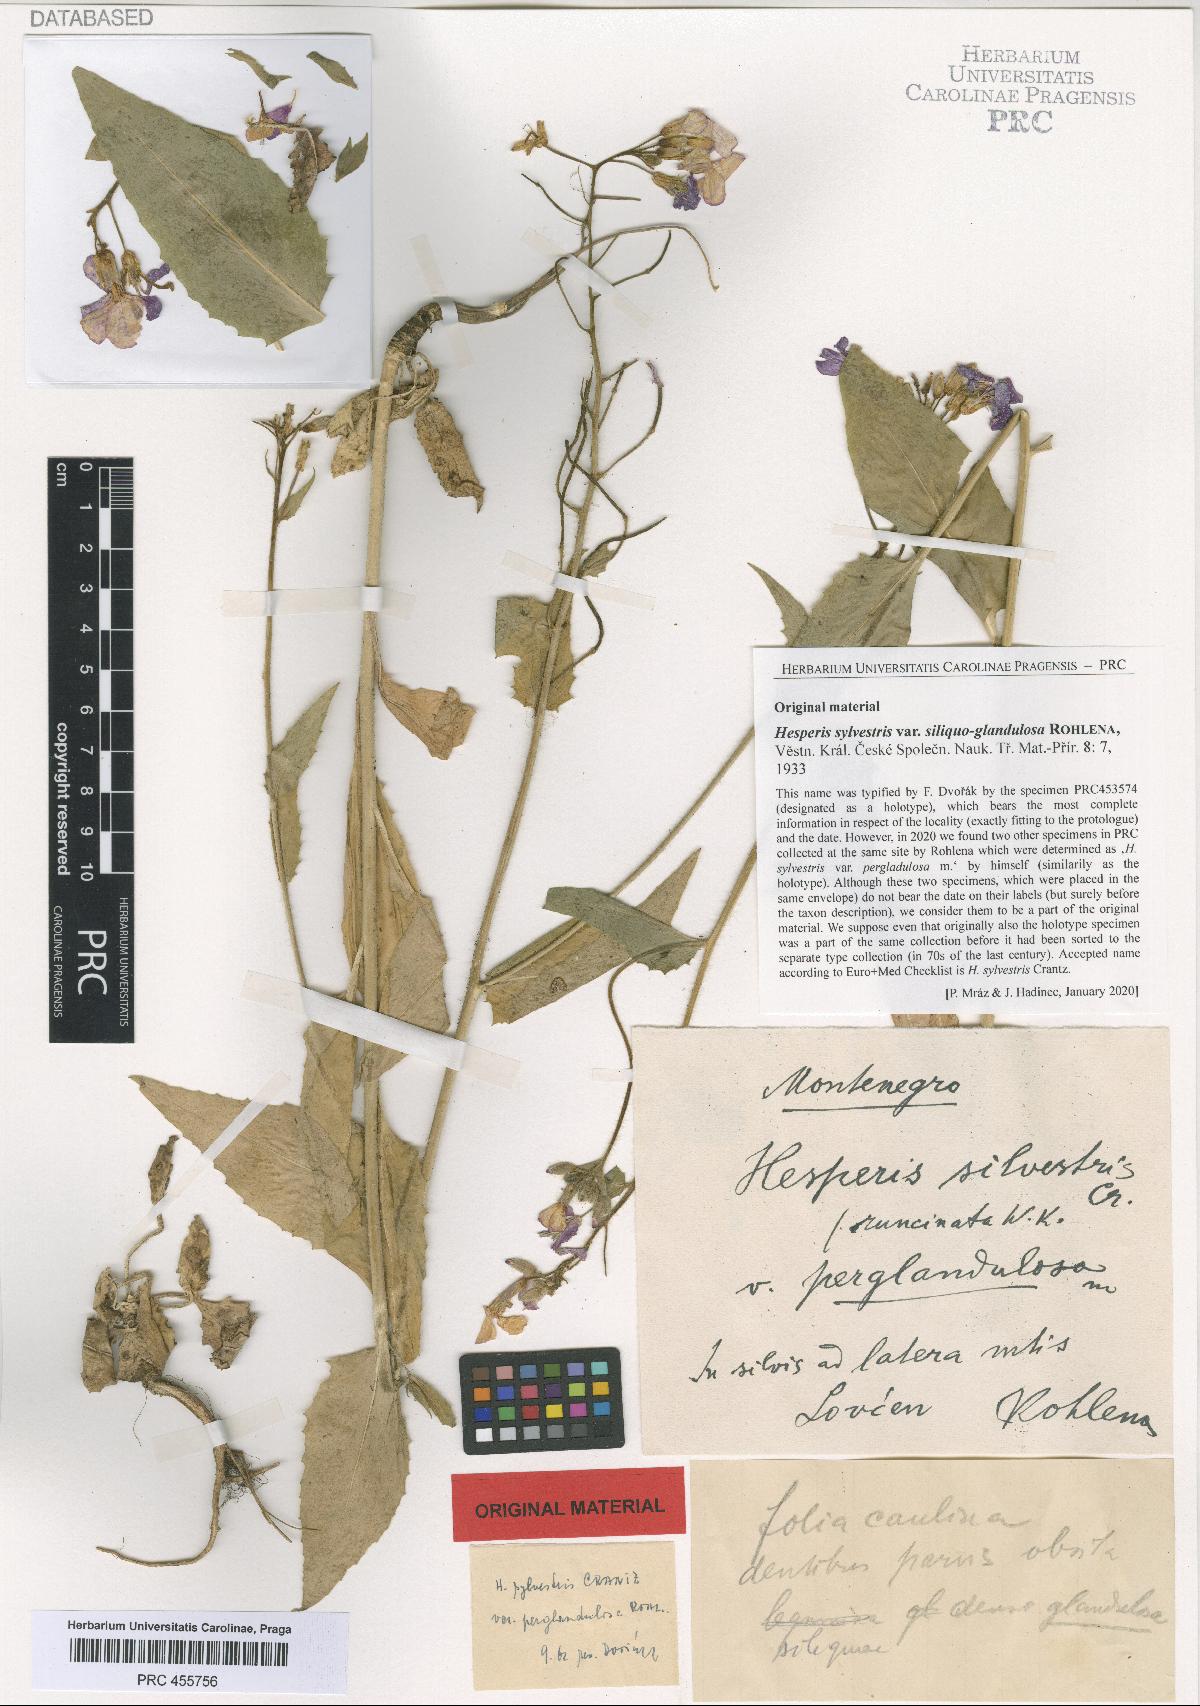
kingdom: Plantae
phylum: Tracheophyta
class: Magnoliopsida
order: Brassicales
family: Brassicaceae
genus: Hesperis
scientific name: Hesperis sylvestris
